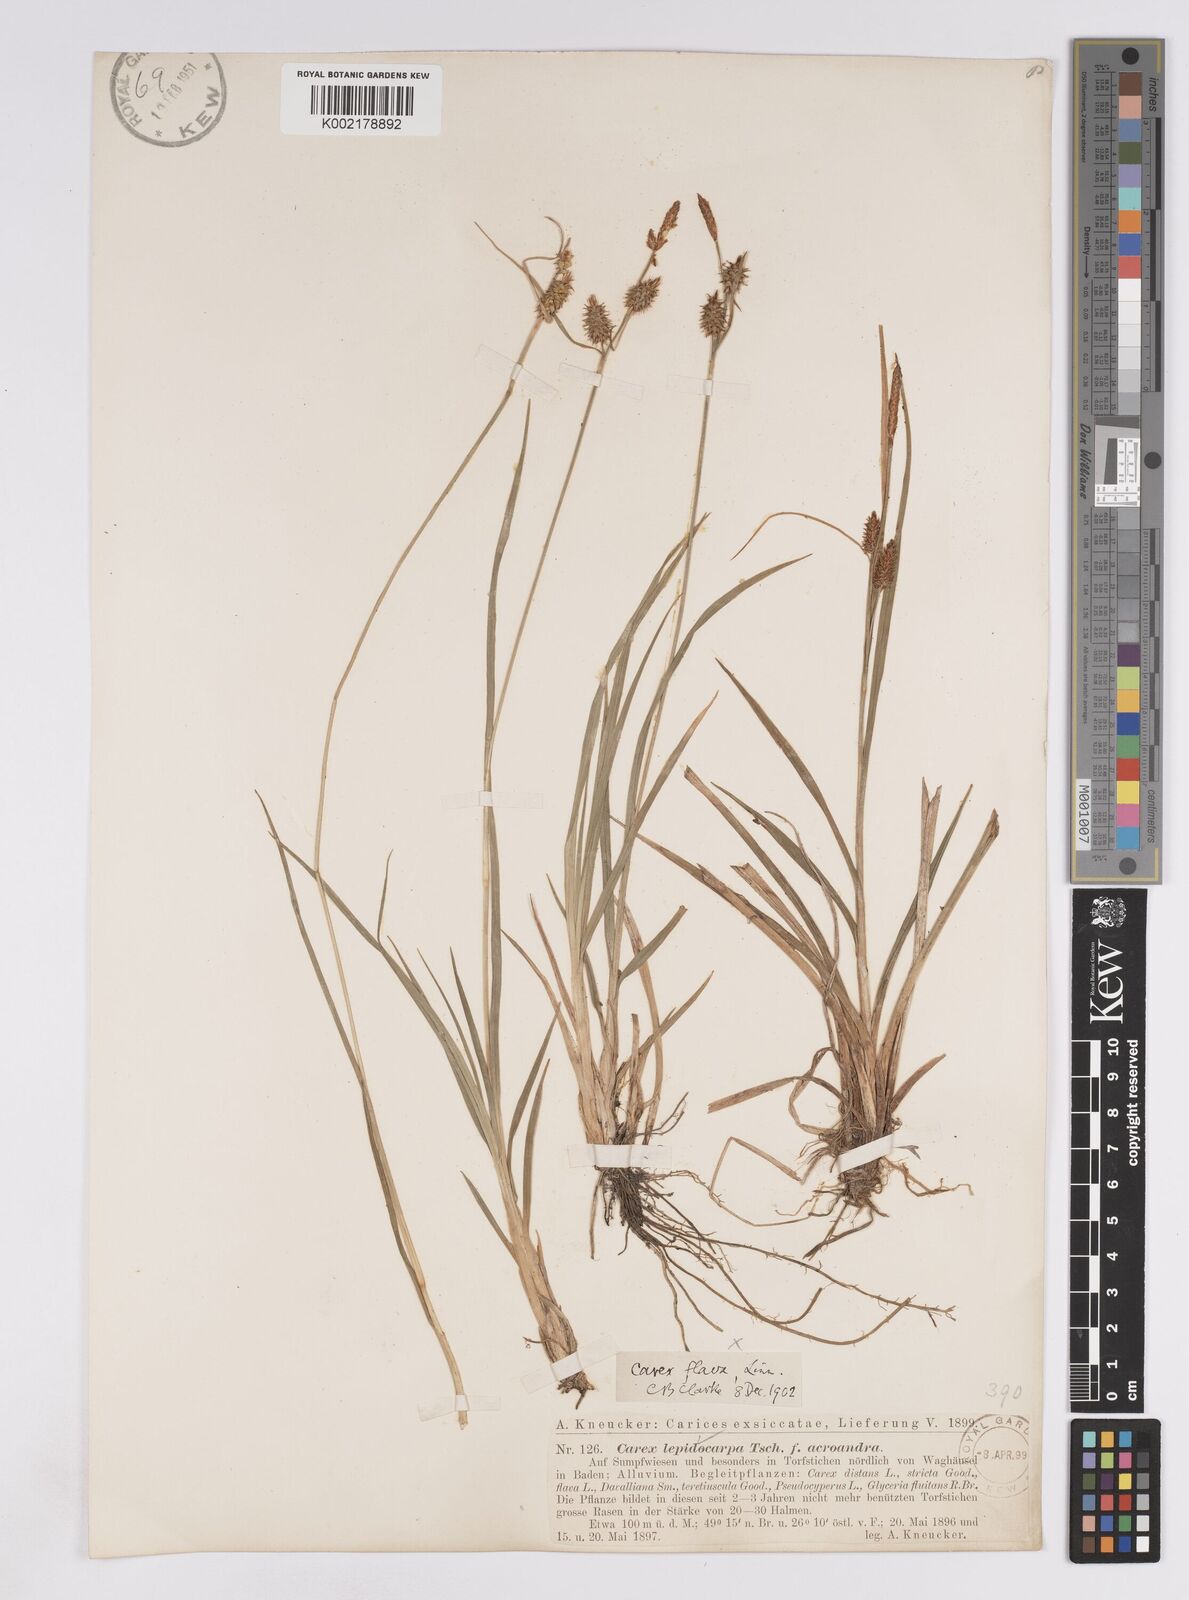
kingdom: Plantae
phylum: Tracheophyta
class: Liliopsida
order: Poales
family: Cyperaceae
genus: Carex
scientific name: Carex lepidocarpa
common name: Long-stalked yellow-sedge
